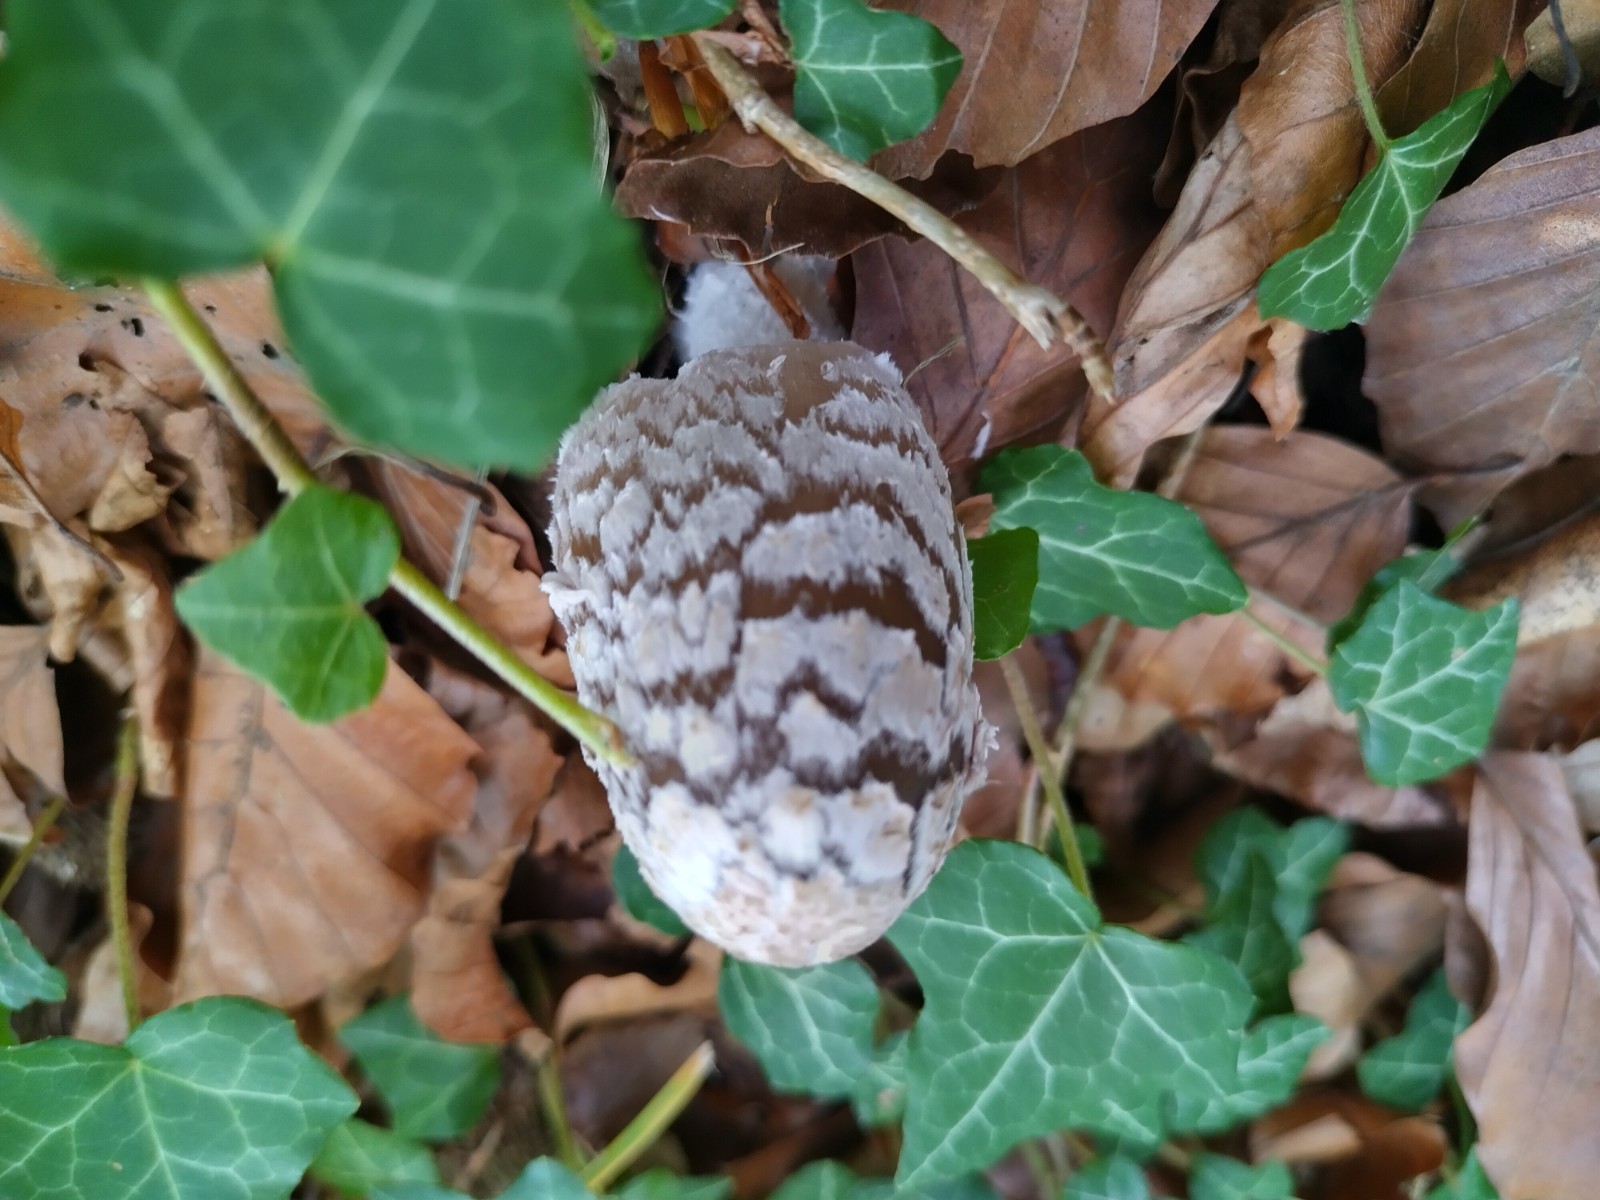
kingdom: Fungi
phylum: Basidiomycota
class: Agaricomycetes
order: Agaricales
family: Psathyrellaceae
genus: Coprinopsis
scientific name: Coprinopsis picacea
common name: skade-blækhat
